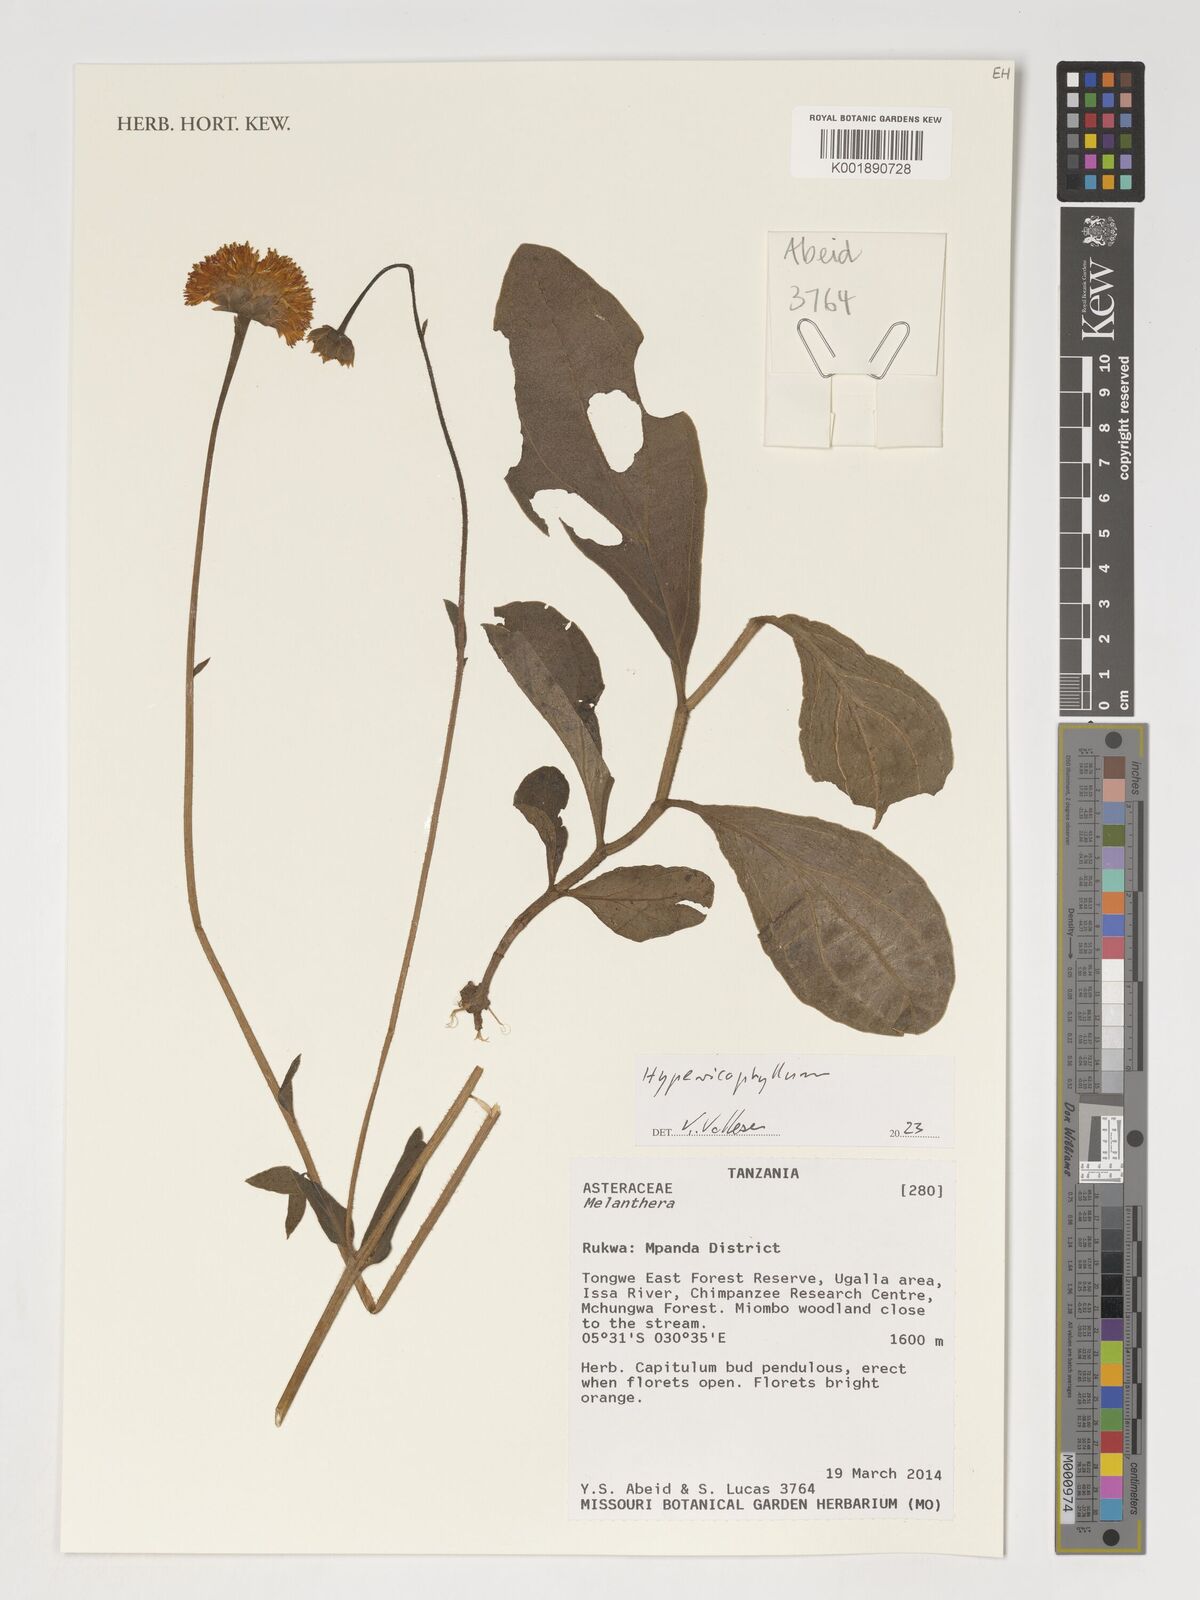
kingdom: Plantae
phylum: Tracheophyta
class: Magnoliopsida
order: Asterales
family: Asteraceae
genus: Melanthera
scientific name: Melanthera
